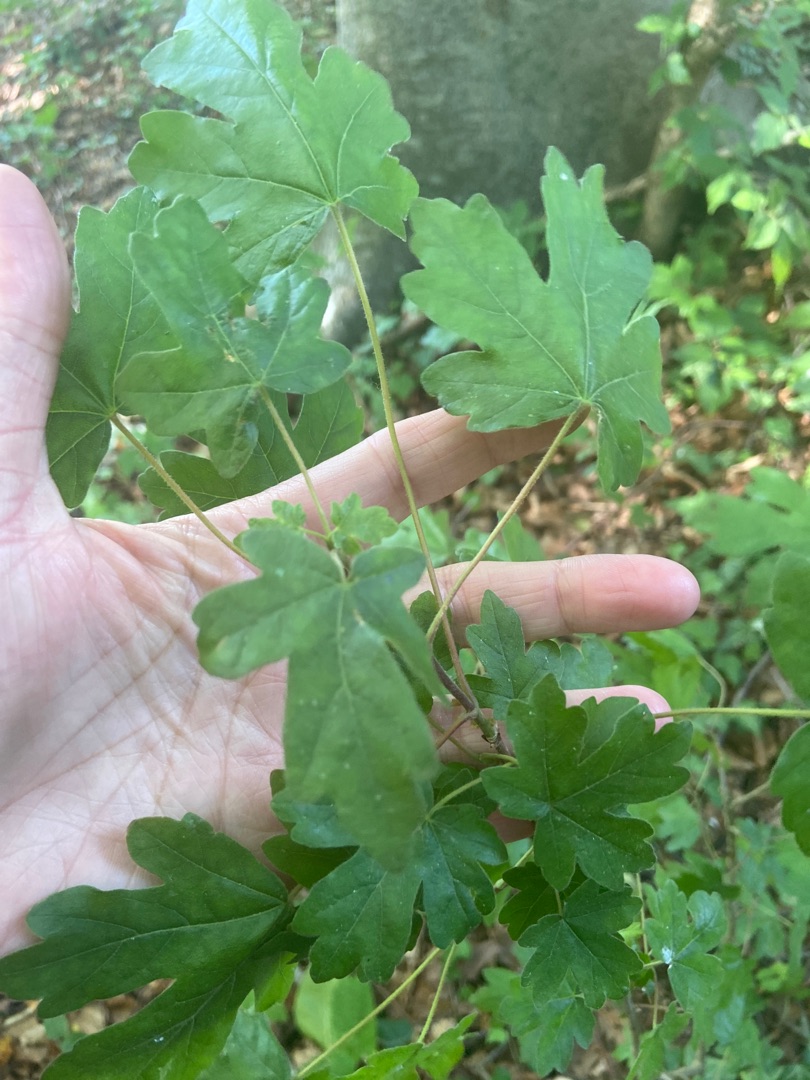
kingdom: Plantae
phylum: Tracheophyta
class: Magnoliopsida
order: Sapindales
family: Sapindaceae
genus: Acer
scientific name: Acer campestre
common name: Navr
